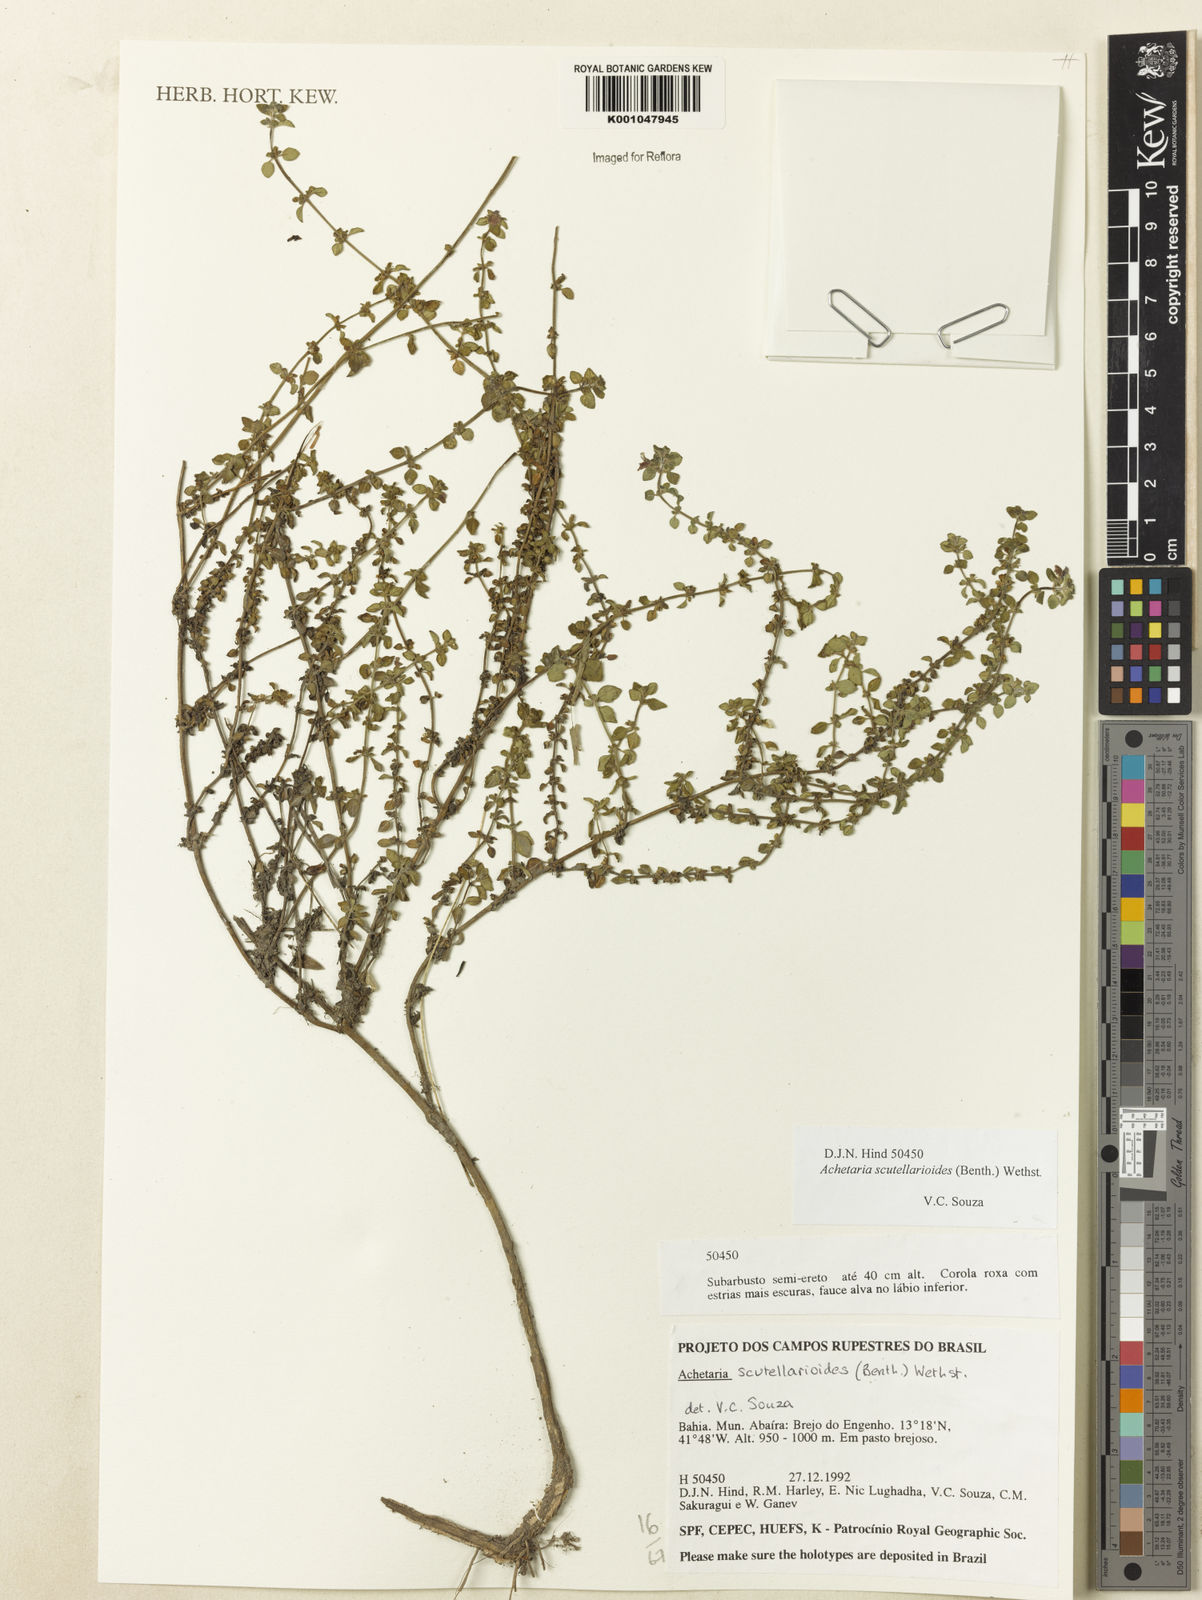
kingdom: Plantae
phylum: Tracheophyta
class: Magnoliopsida
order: Lamiales
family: Plantaginaceae
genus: Matourea
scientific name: Matourea scutellarioides
